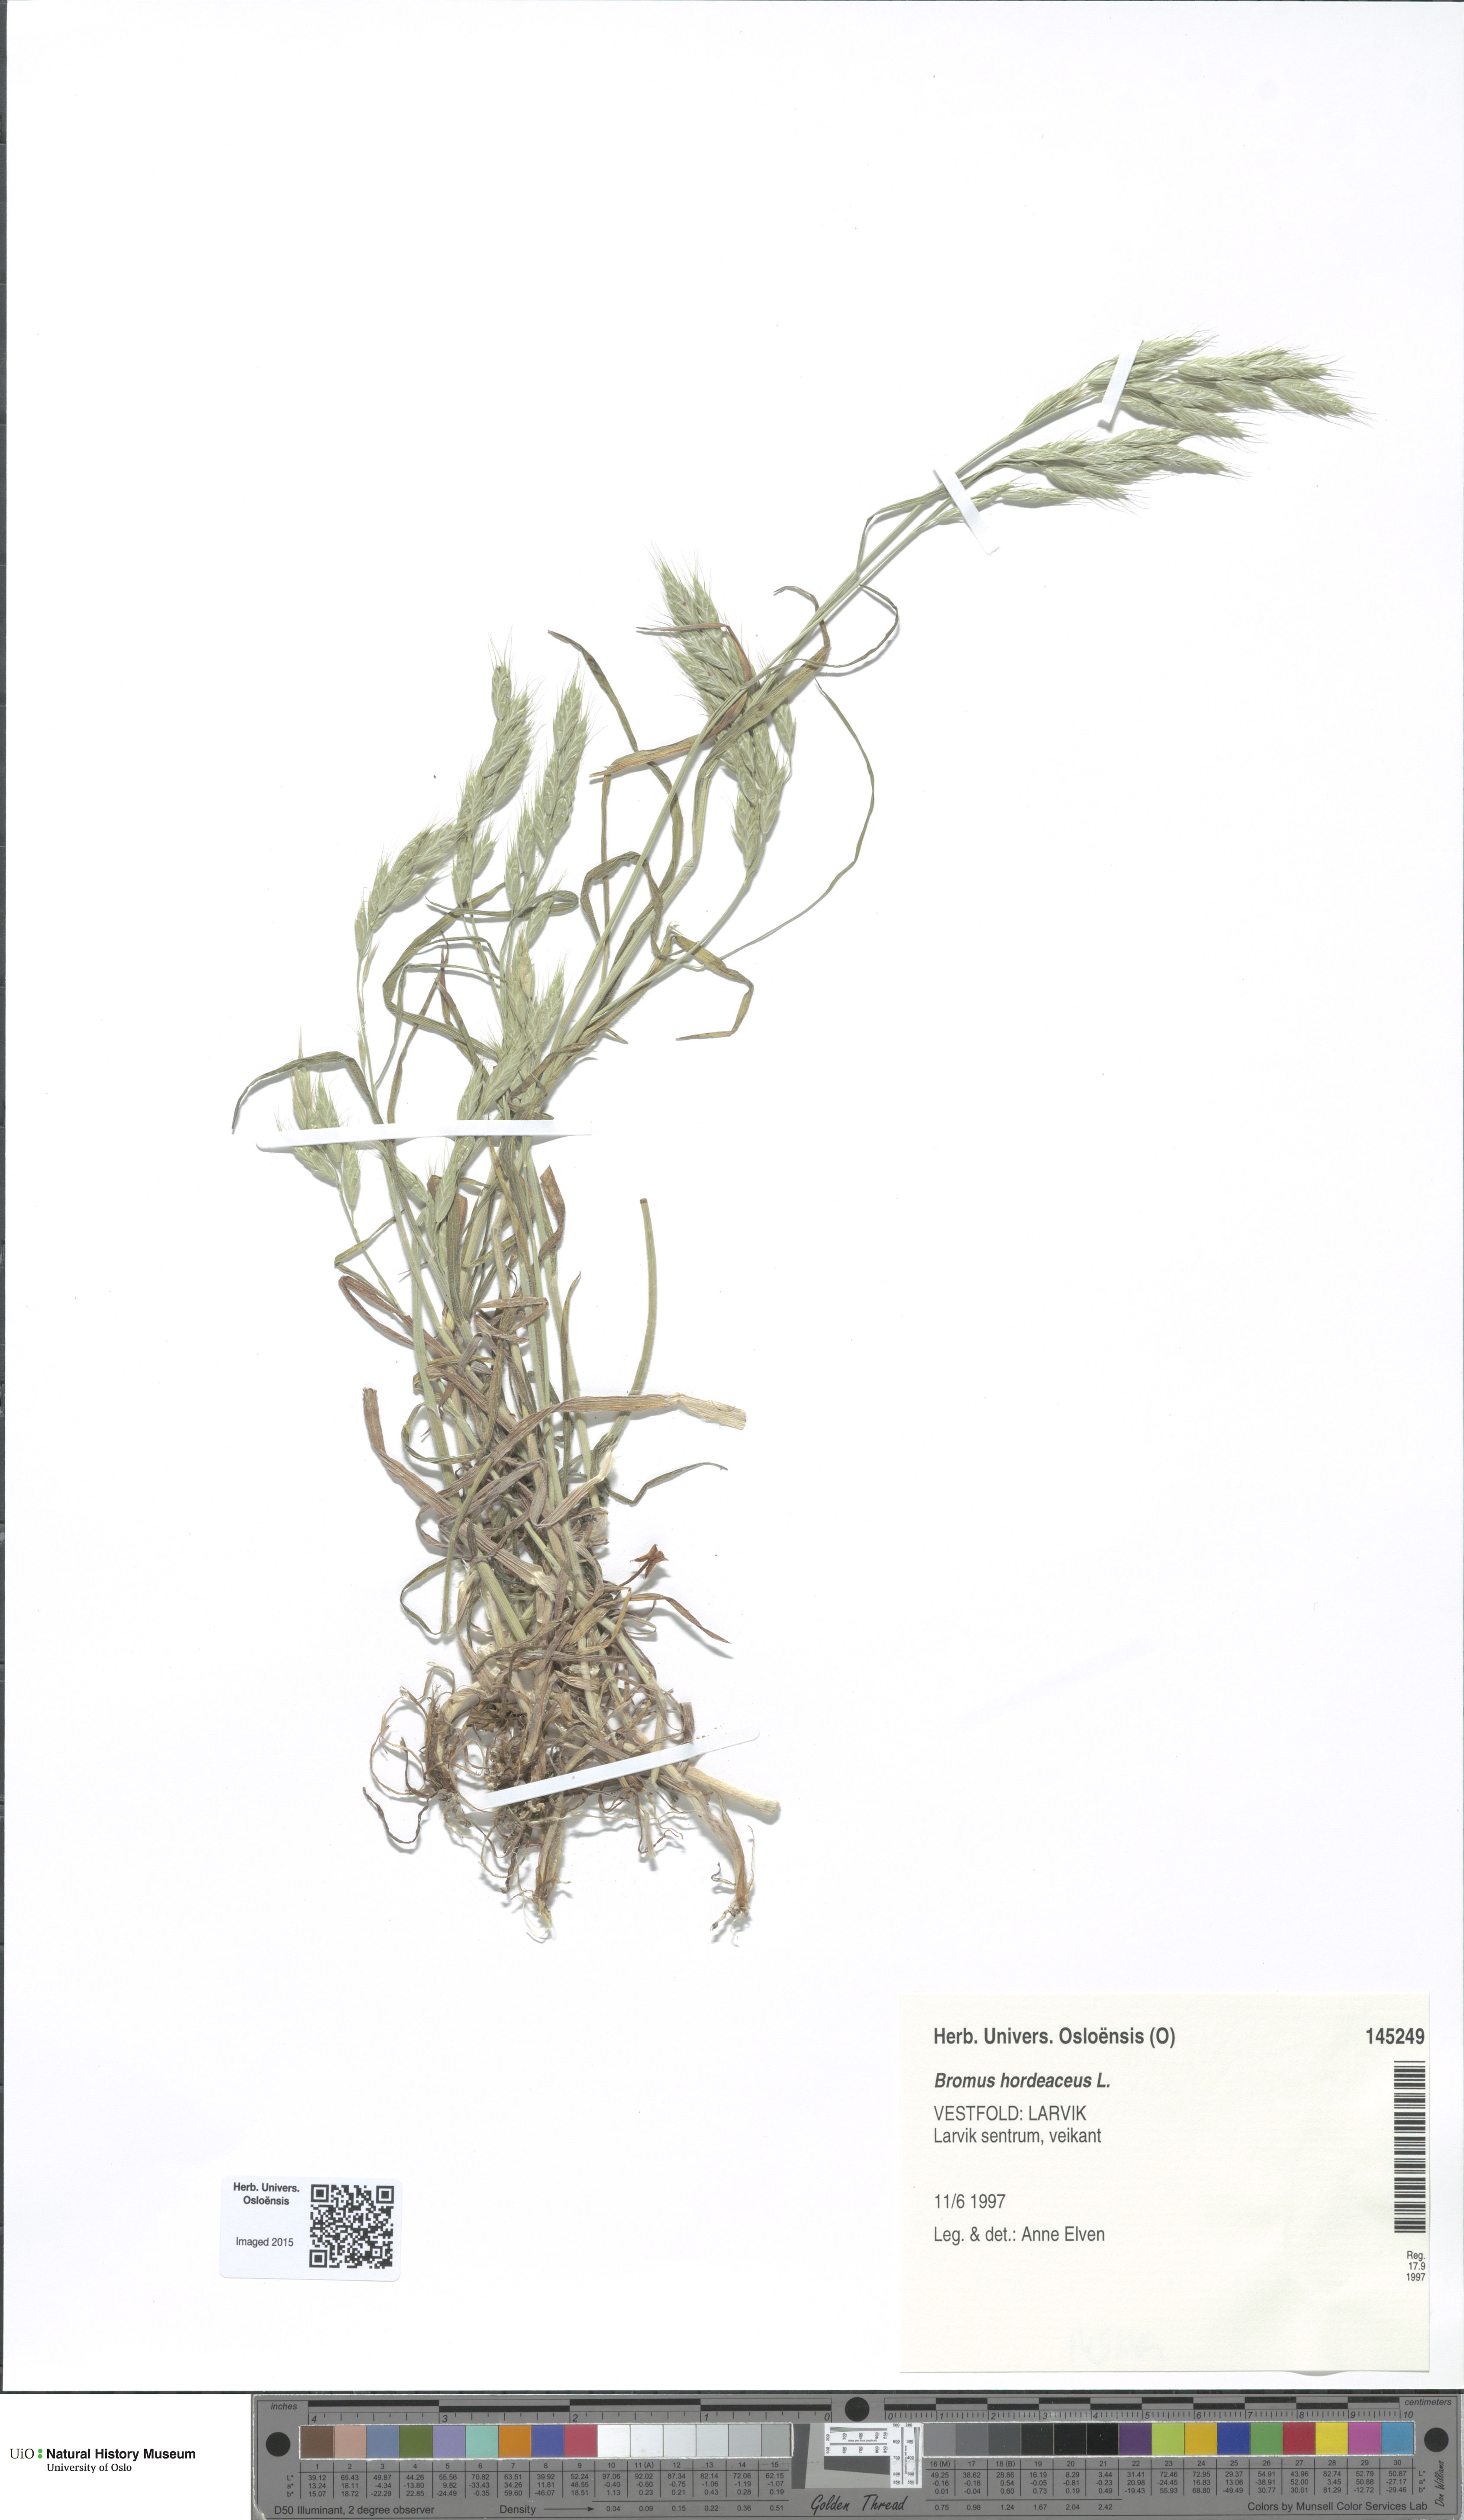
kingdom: Plantae
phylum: Tracheophyta
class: Liliopsida
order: Poales
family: Poaceae
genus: Bromus
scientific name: Bromus hordeaceus
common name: Soft brome
